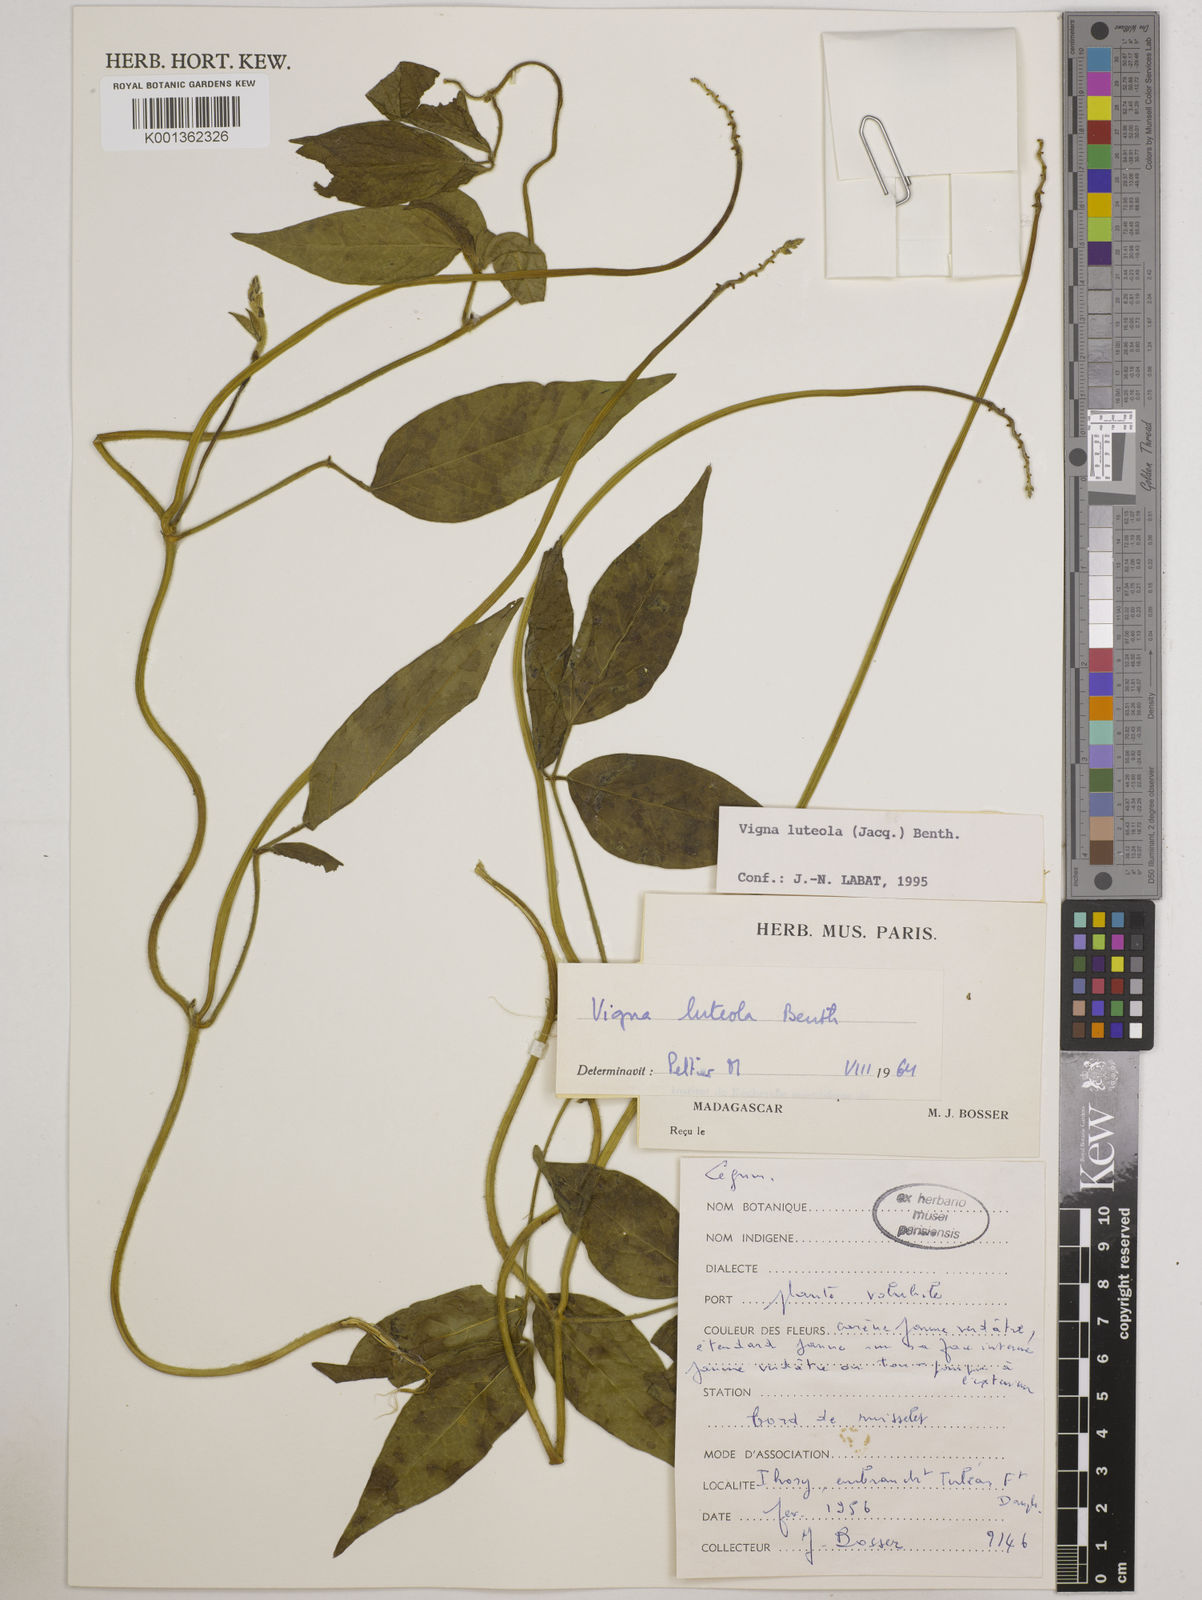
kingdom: Plantae
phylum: Tracheophyta
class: Magnoliopsida
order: Fabales
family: Fabaceae
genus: Vigna
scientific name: Vigna luteola
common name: Hairypod cowpea
